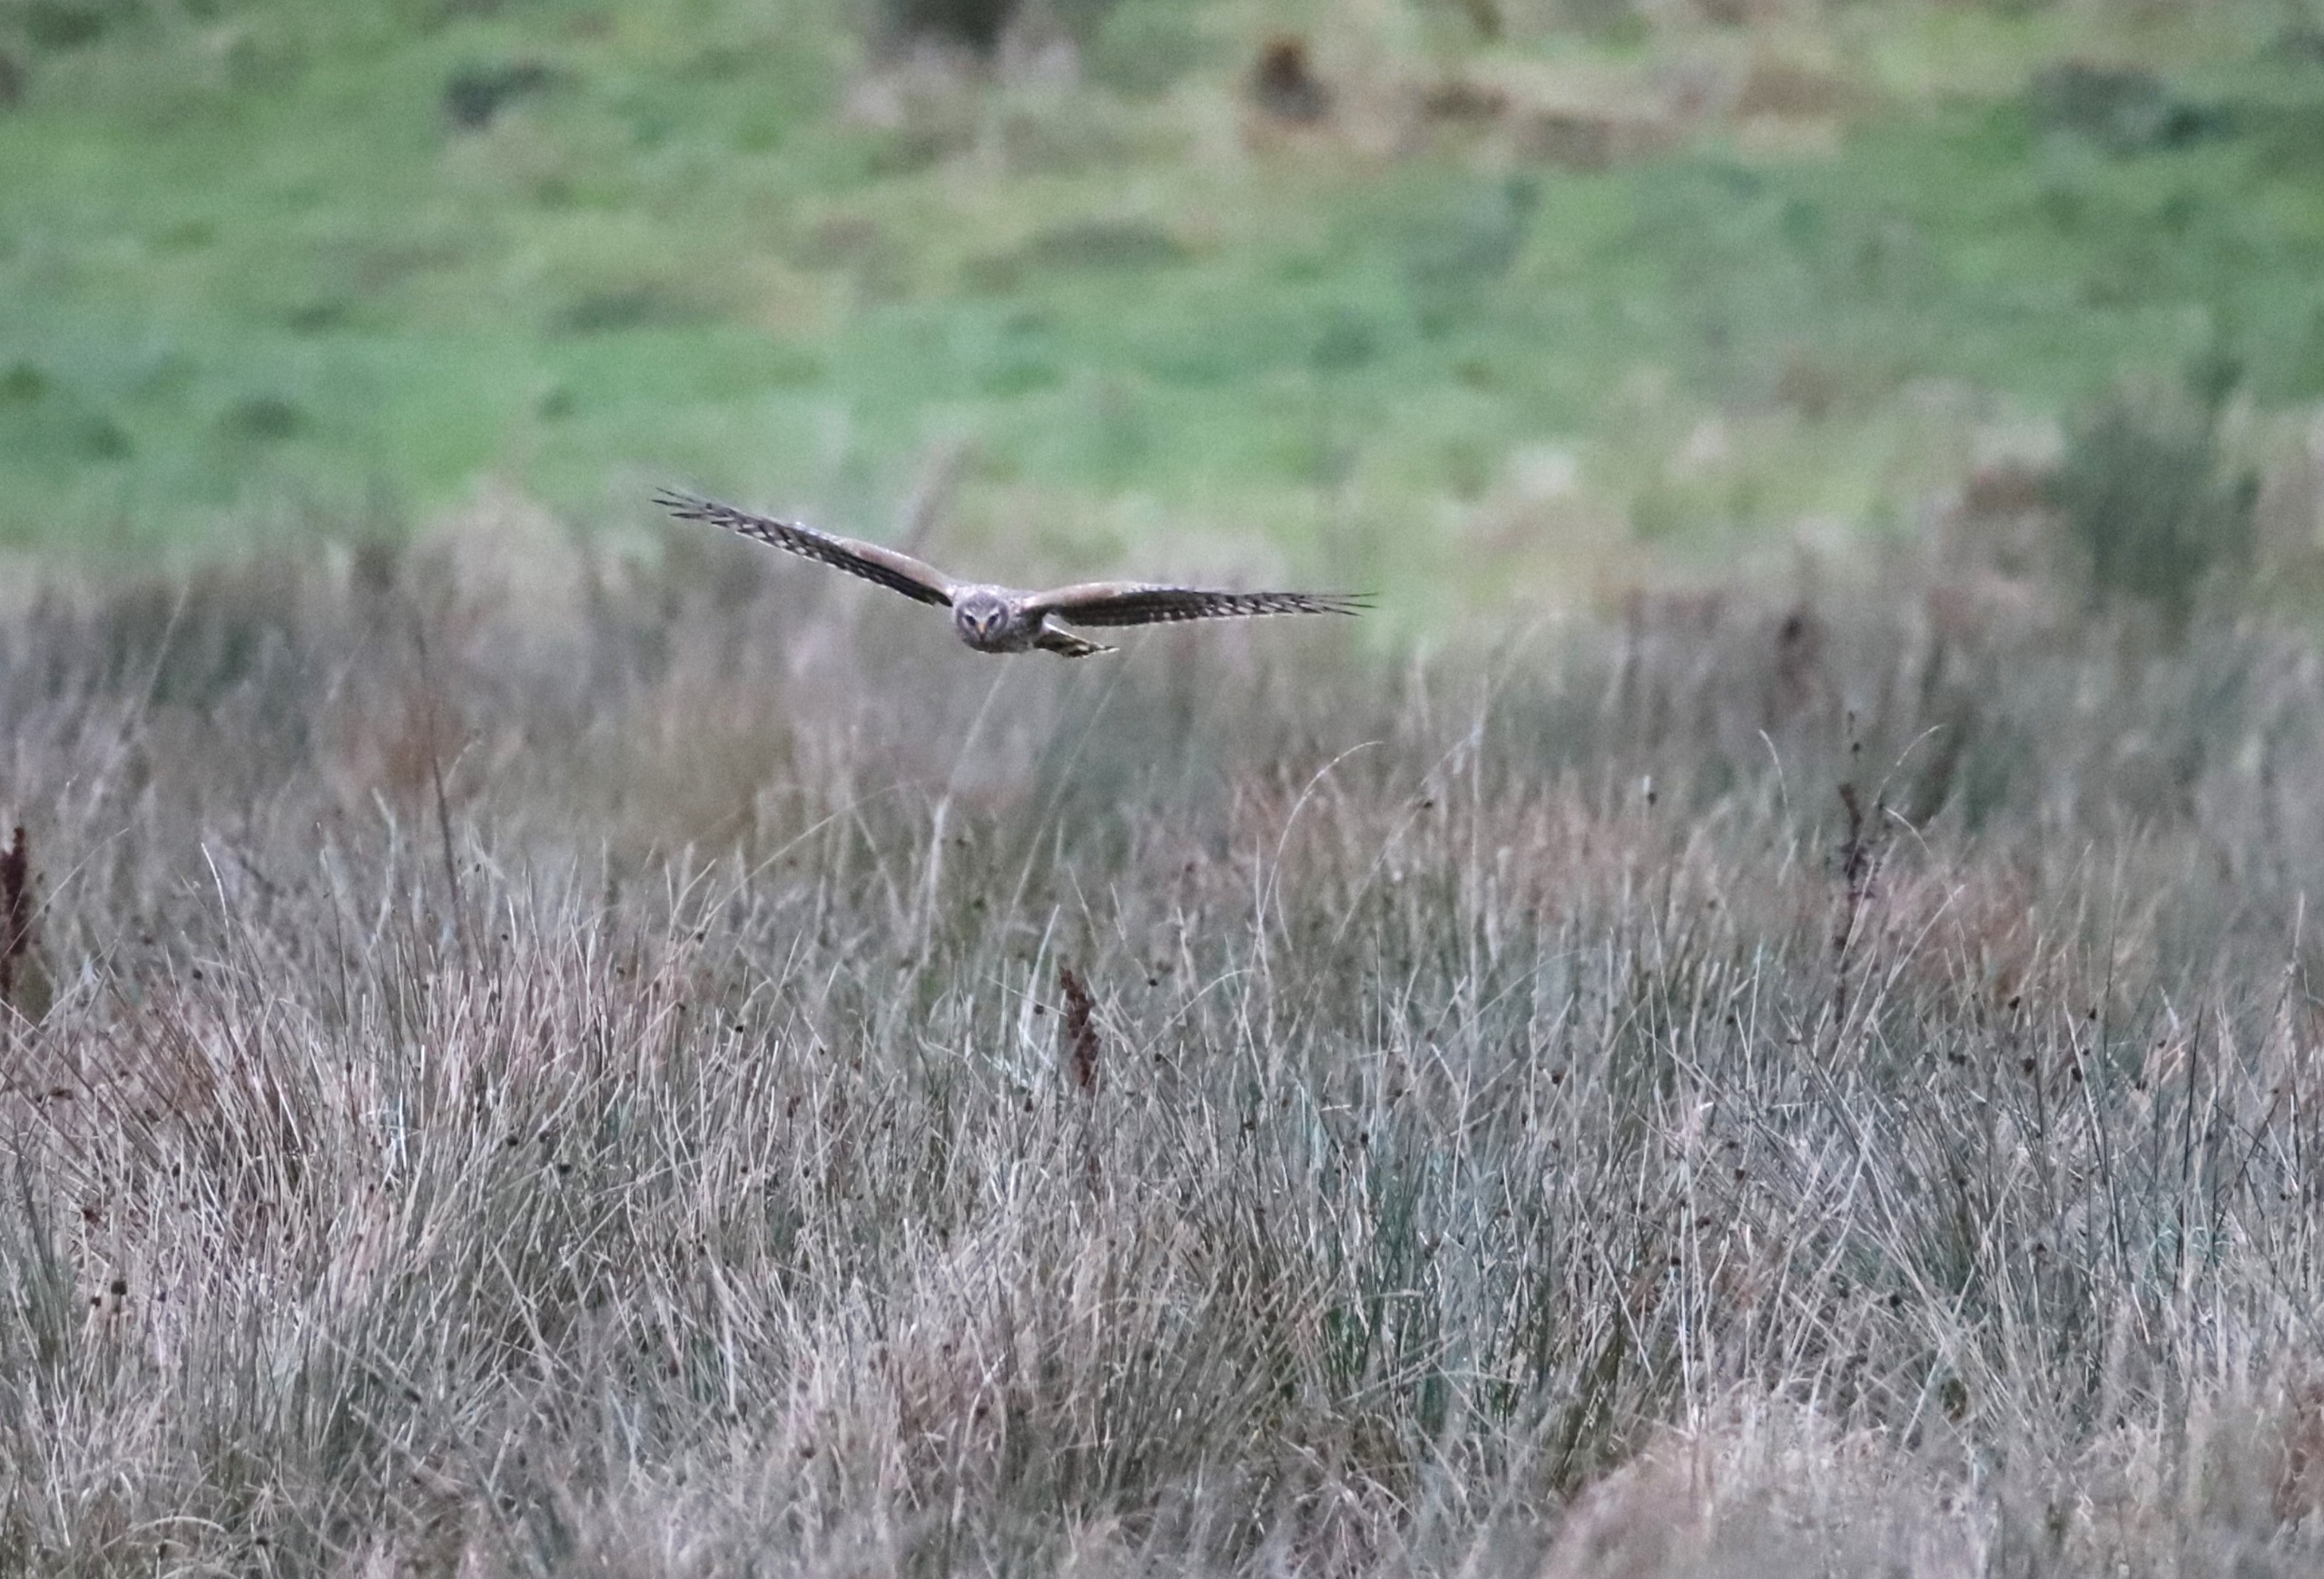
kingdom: Animalia
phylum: Chordata
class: Aves
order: Accipitriformes
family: Accipitridae
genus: Circus
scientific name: Circus cyaneus
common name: Blå kærhøg
